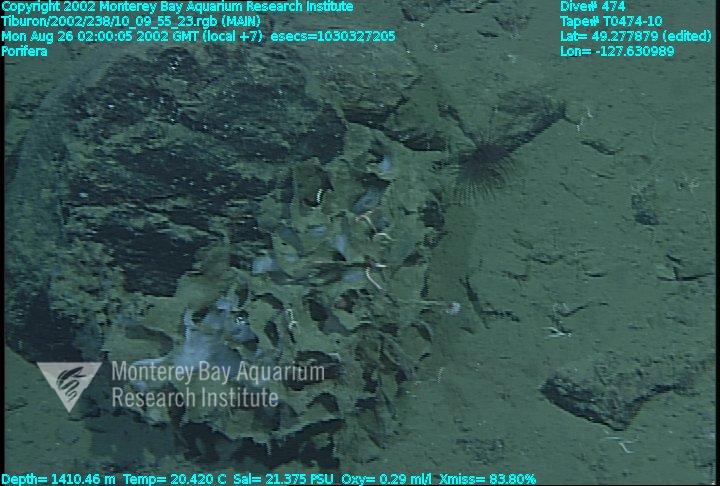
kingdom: Animalia
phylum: Porifera
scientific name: Porifera
